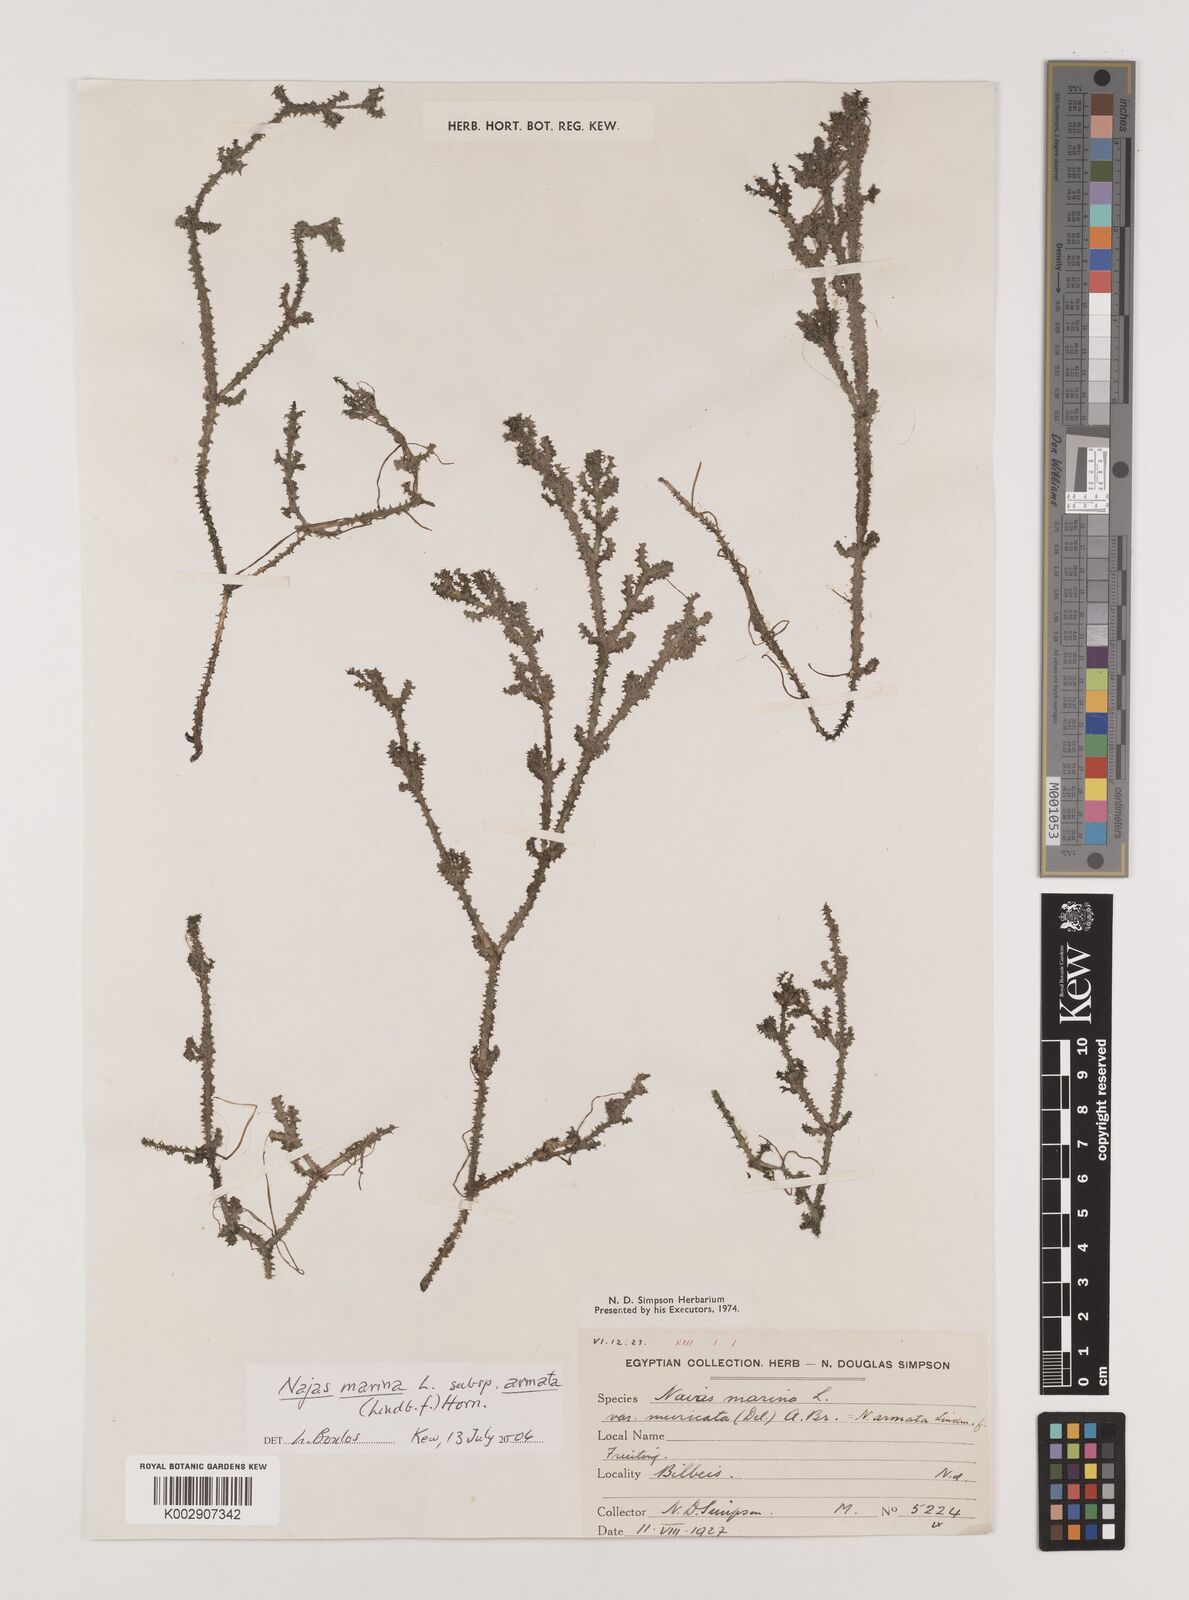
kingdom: Plantae
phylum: Tracheophyta
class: Liliopsida
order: Alismatales
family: Hydrocharitaceae
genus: Najas
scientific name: Najas marina
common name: Holly-leaved naiad
